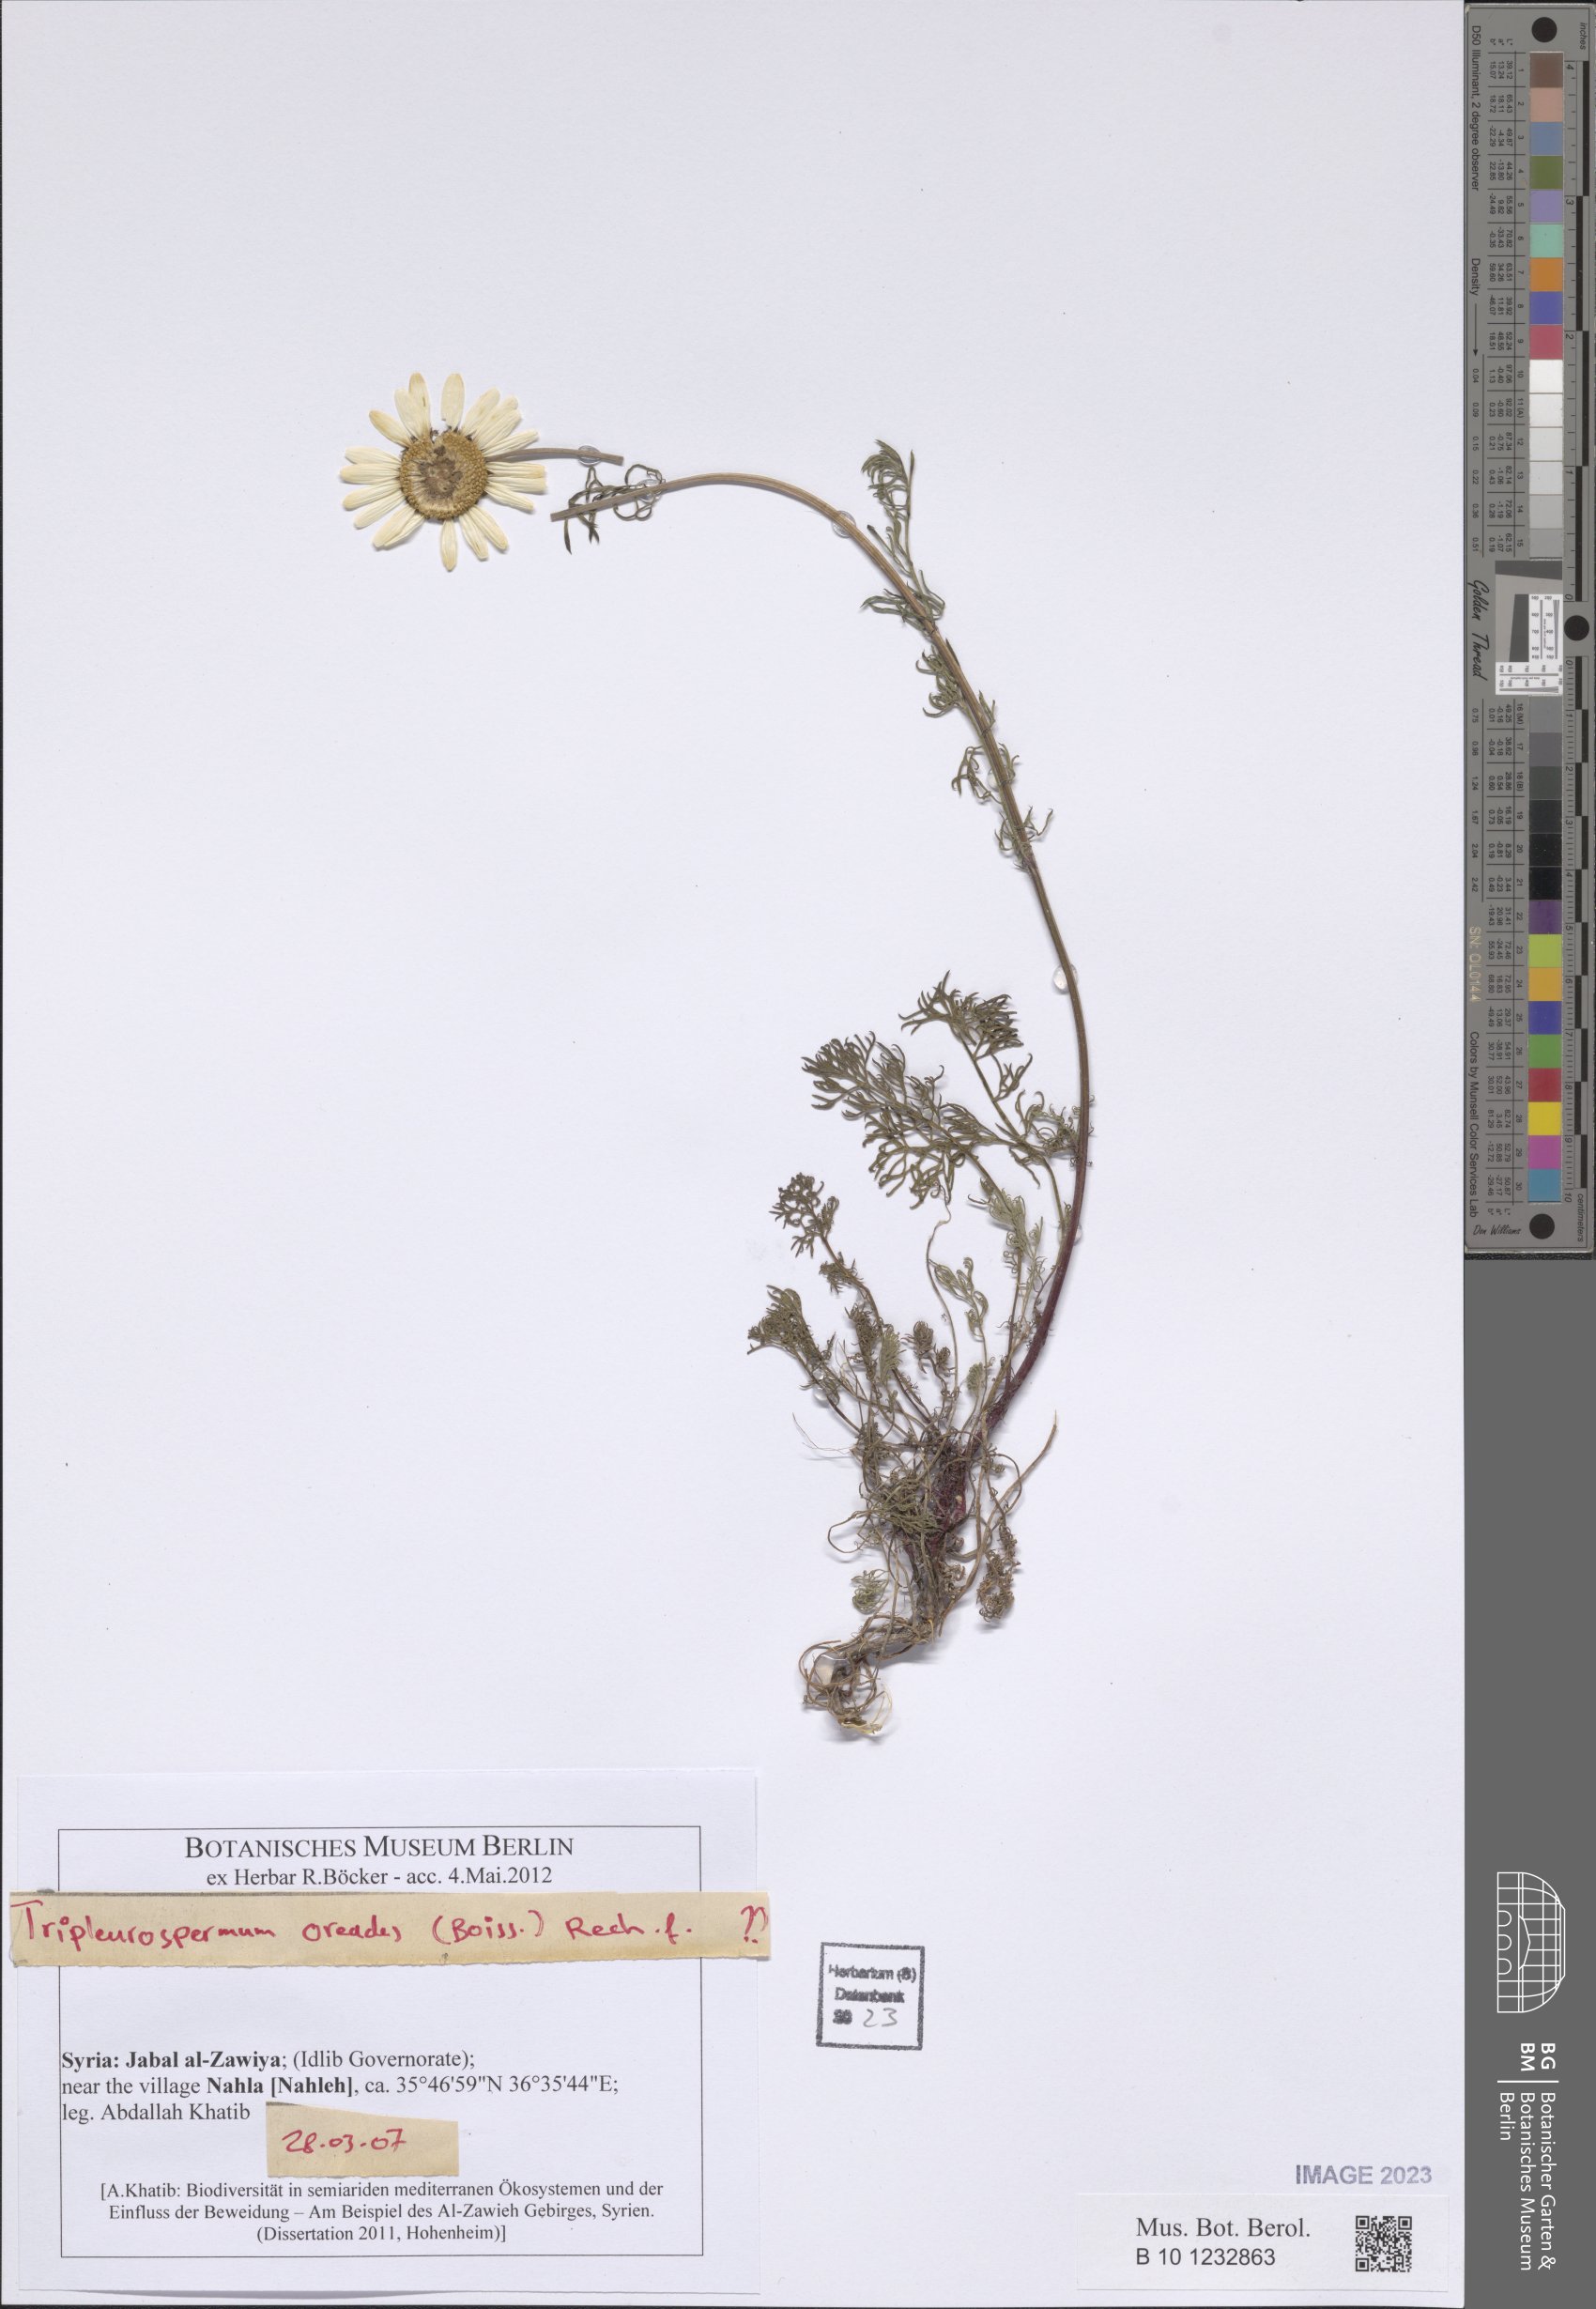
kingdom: Plantae
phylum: Tracheophyta
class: Magnoliopsida
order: Asterales
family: Asteraceae
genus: Tripleurospermum
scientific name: Tripleurospermum caucasicum
